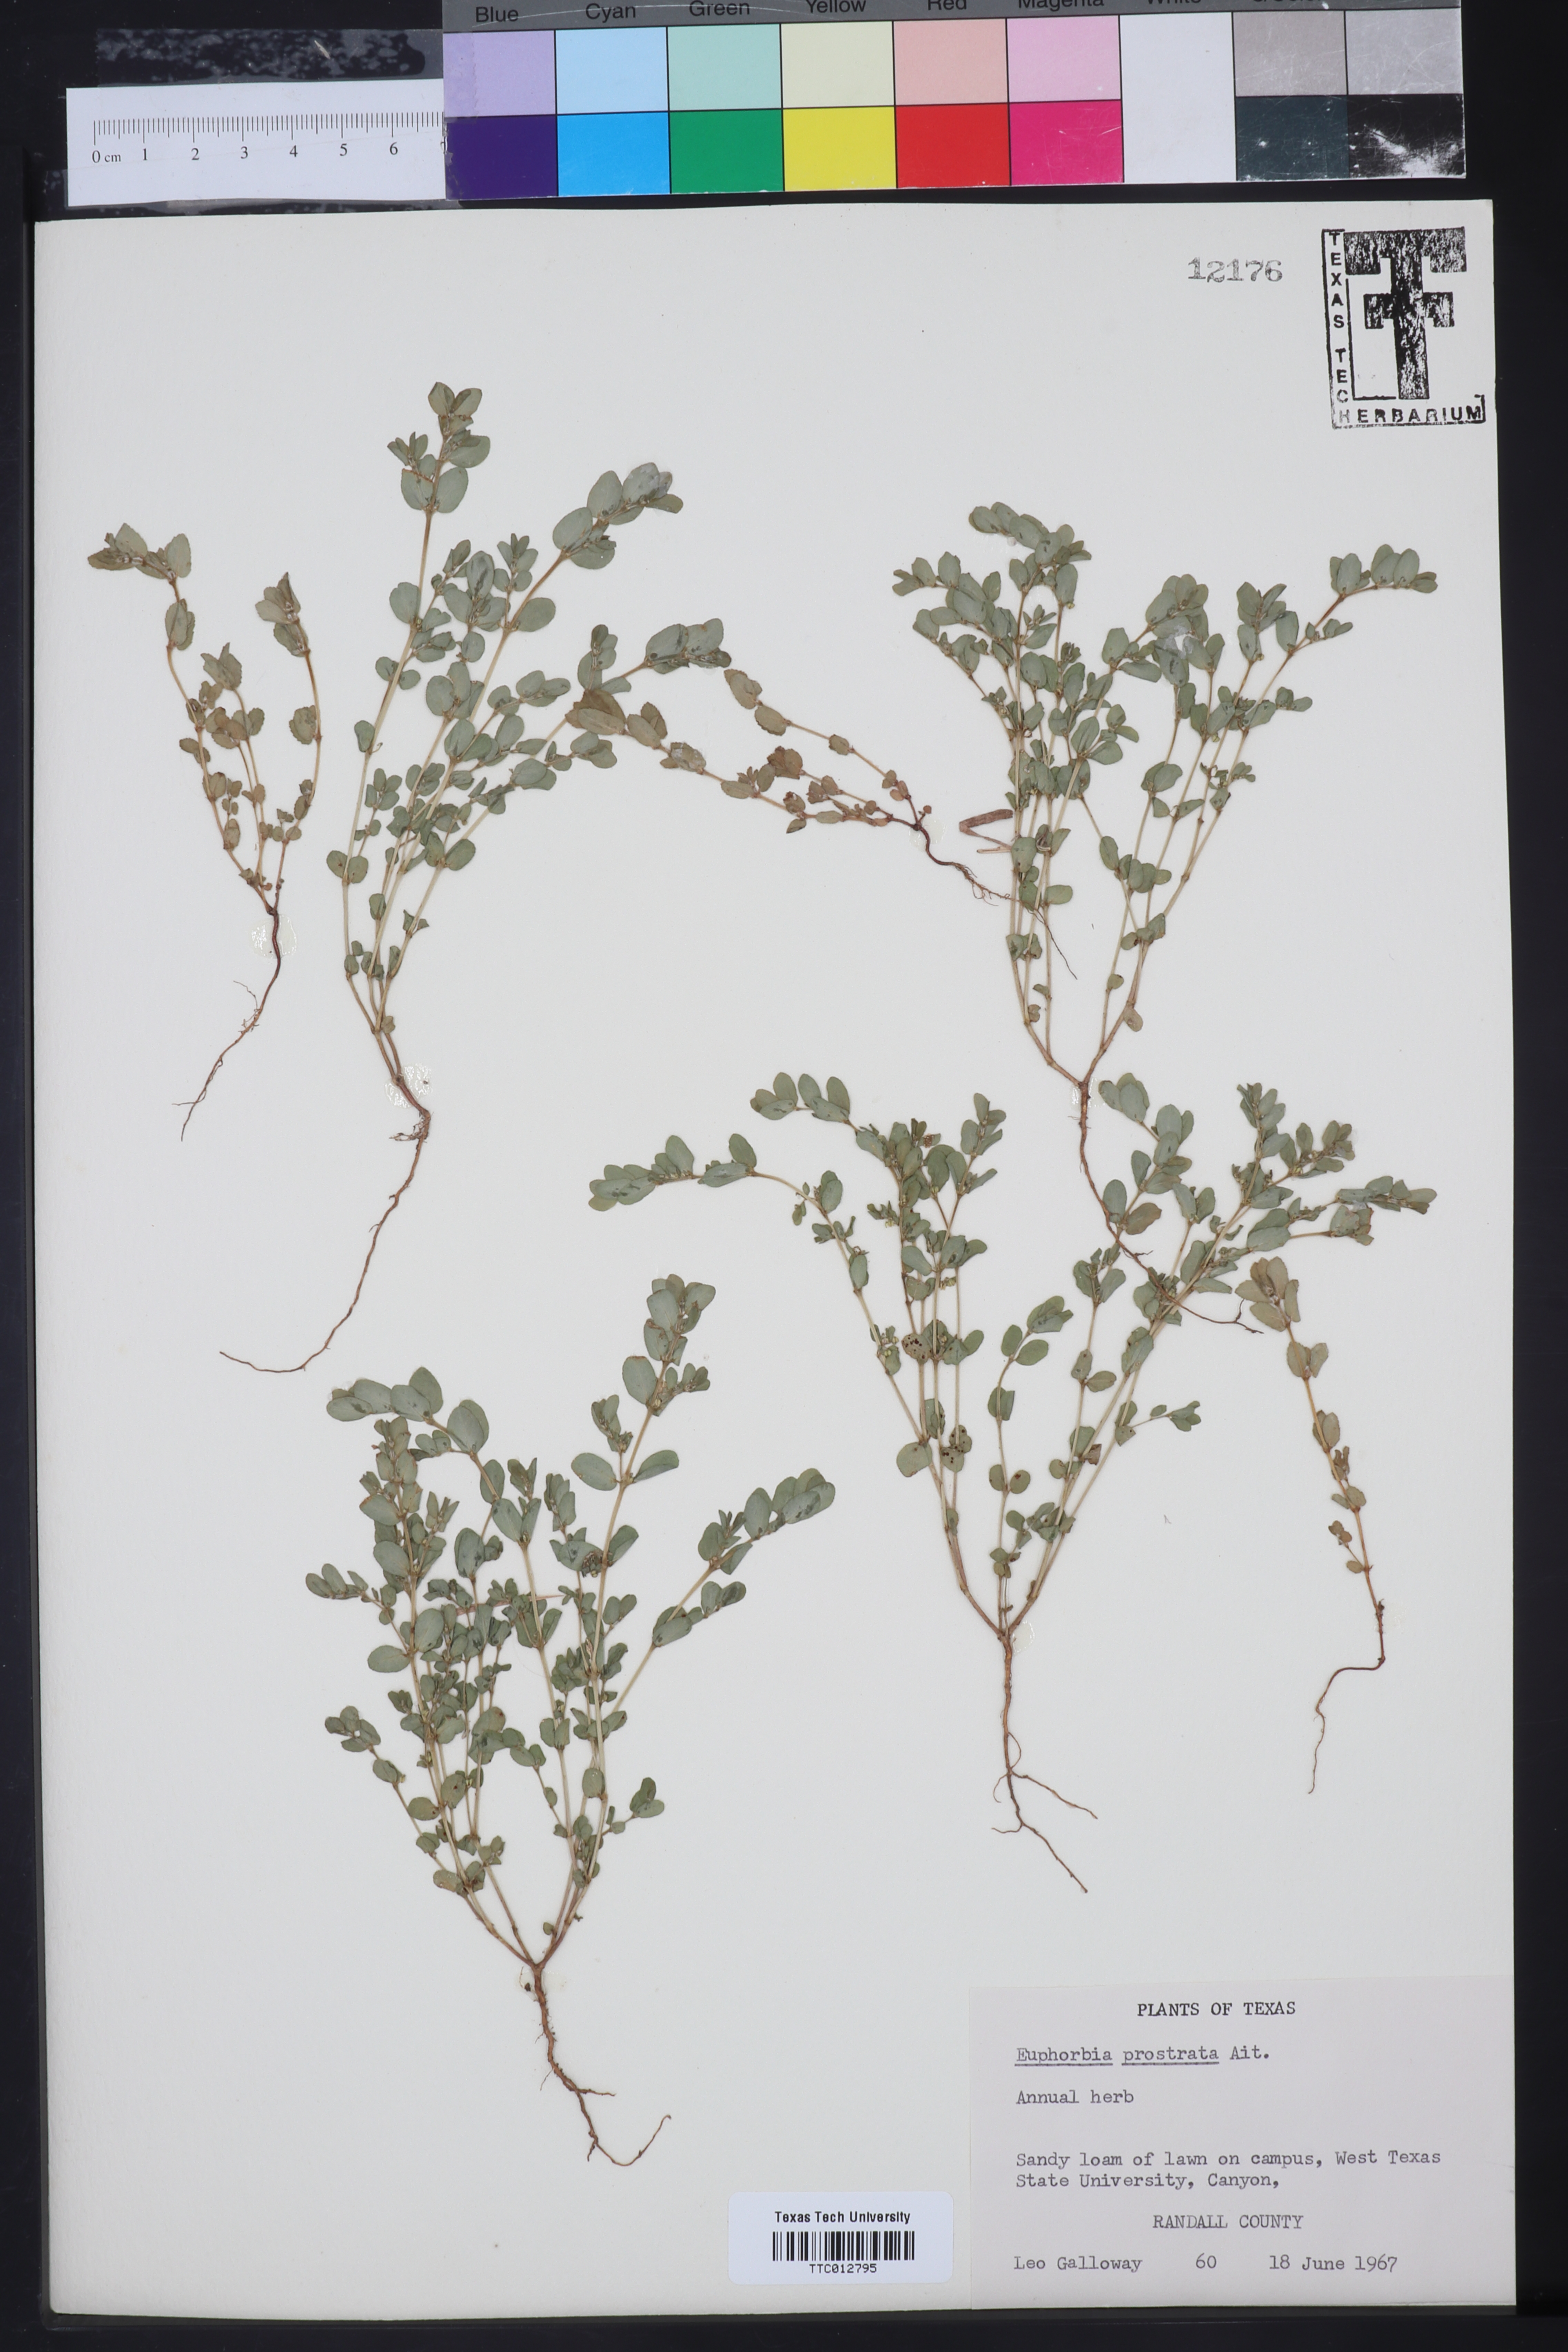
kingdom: Plantae
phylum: Tracheophyta
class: Magnoliopsida
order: Malpighiales
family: Euphorbiaceae
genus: Euphorbia
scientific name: Euphorbia prostrata
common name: Prostrate sandmat
